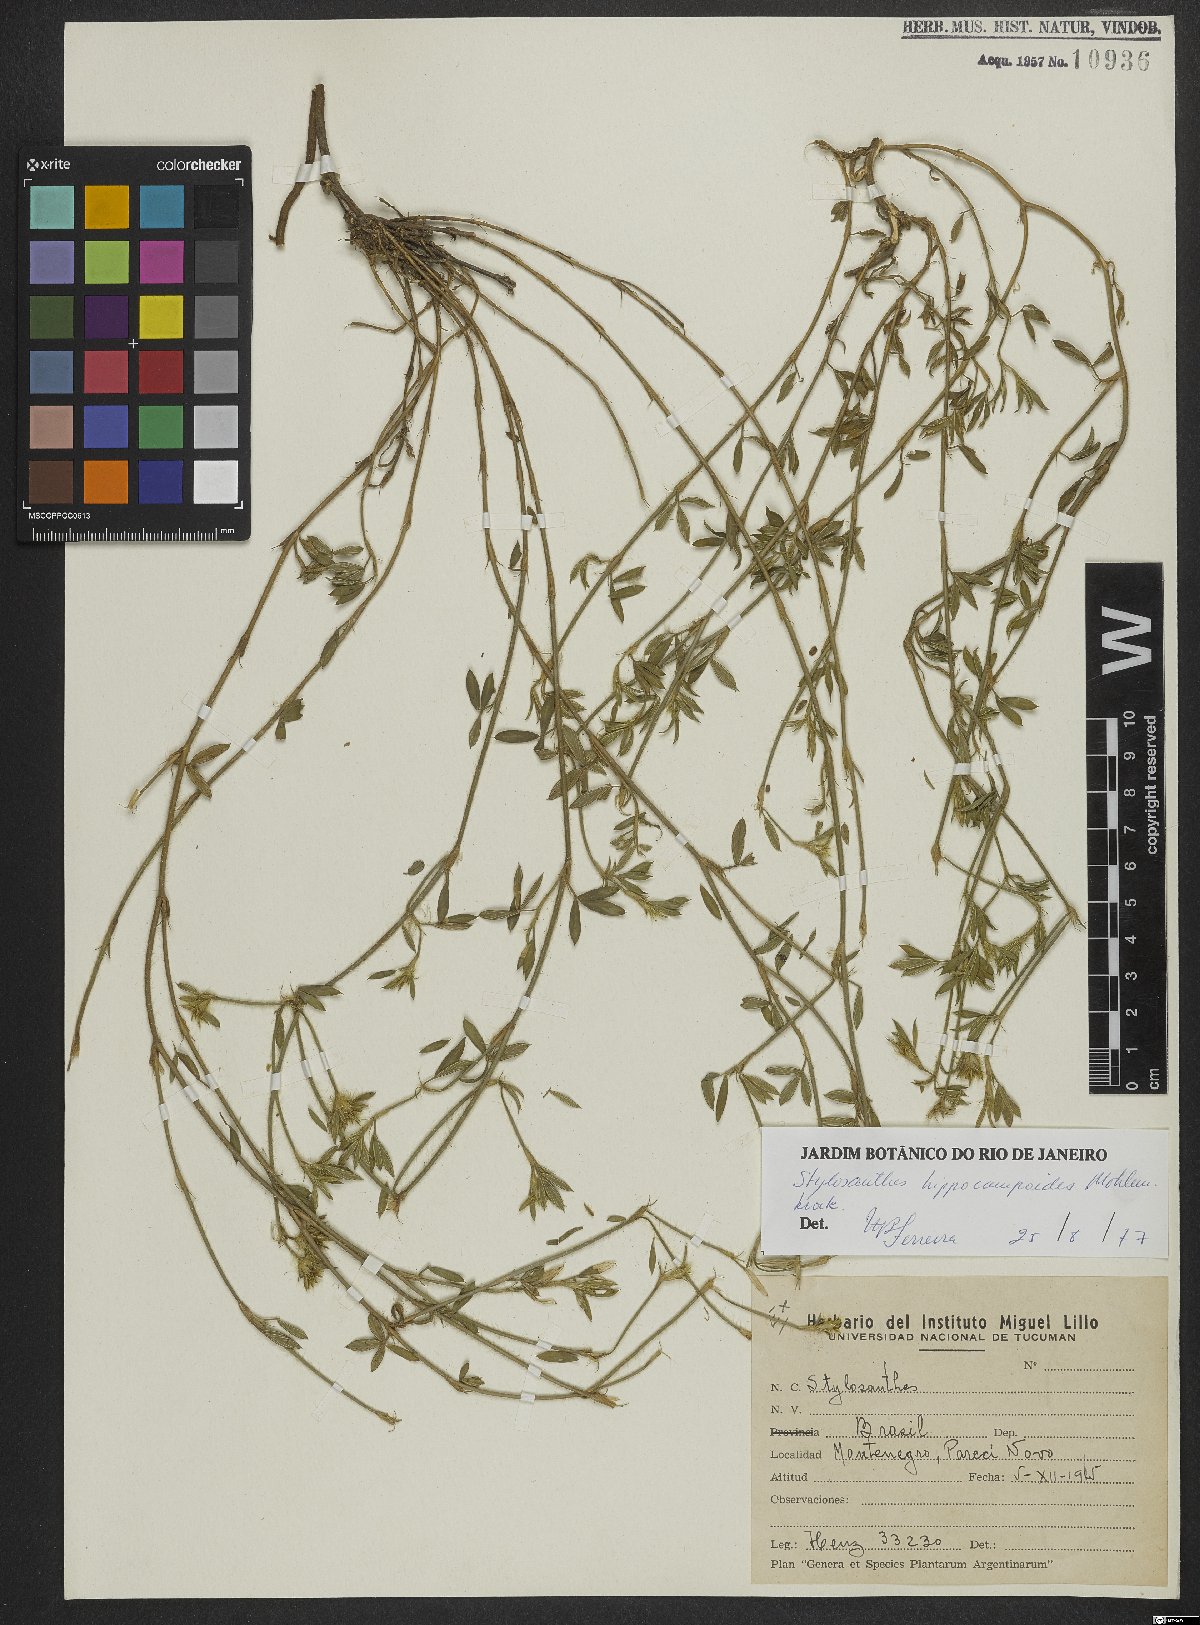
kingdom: Plantae
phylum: Tracheophyta
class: Magnoliopsida
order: Fabales
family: Fabaceae
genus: Stylosanthes
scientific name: Stylosanthes hippocampoides
